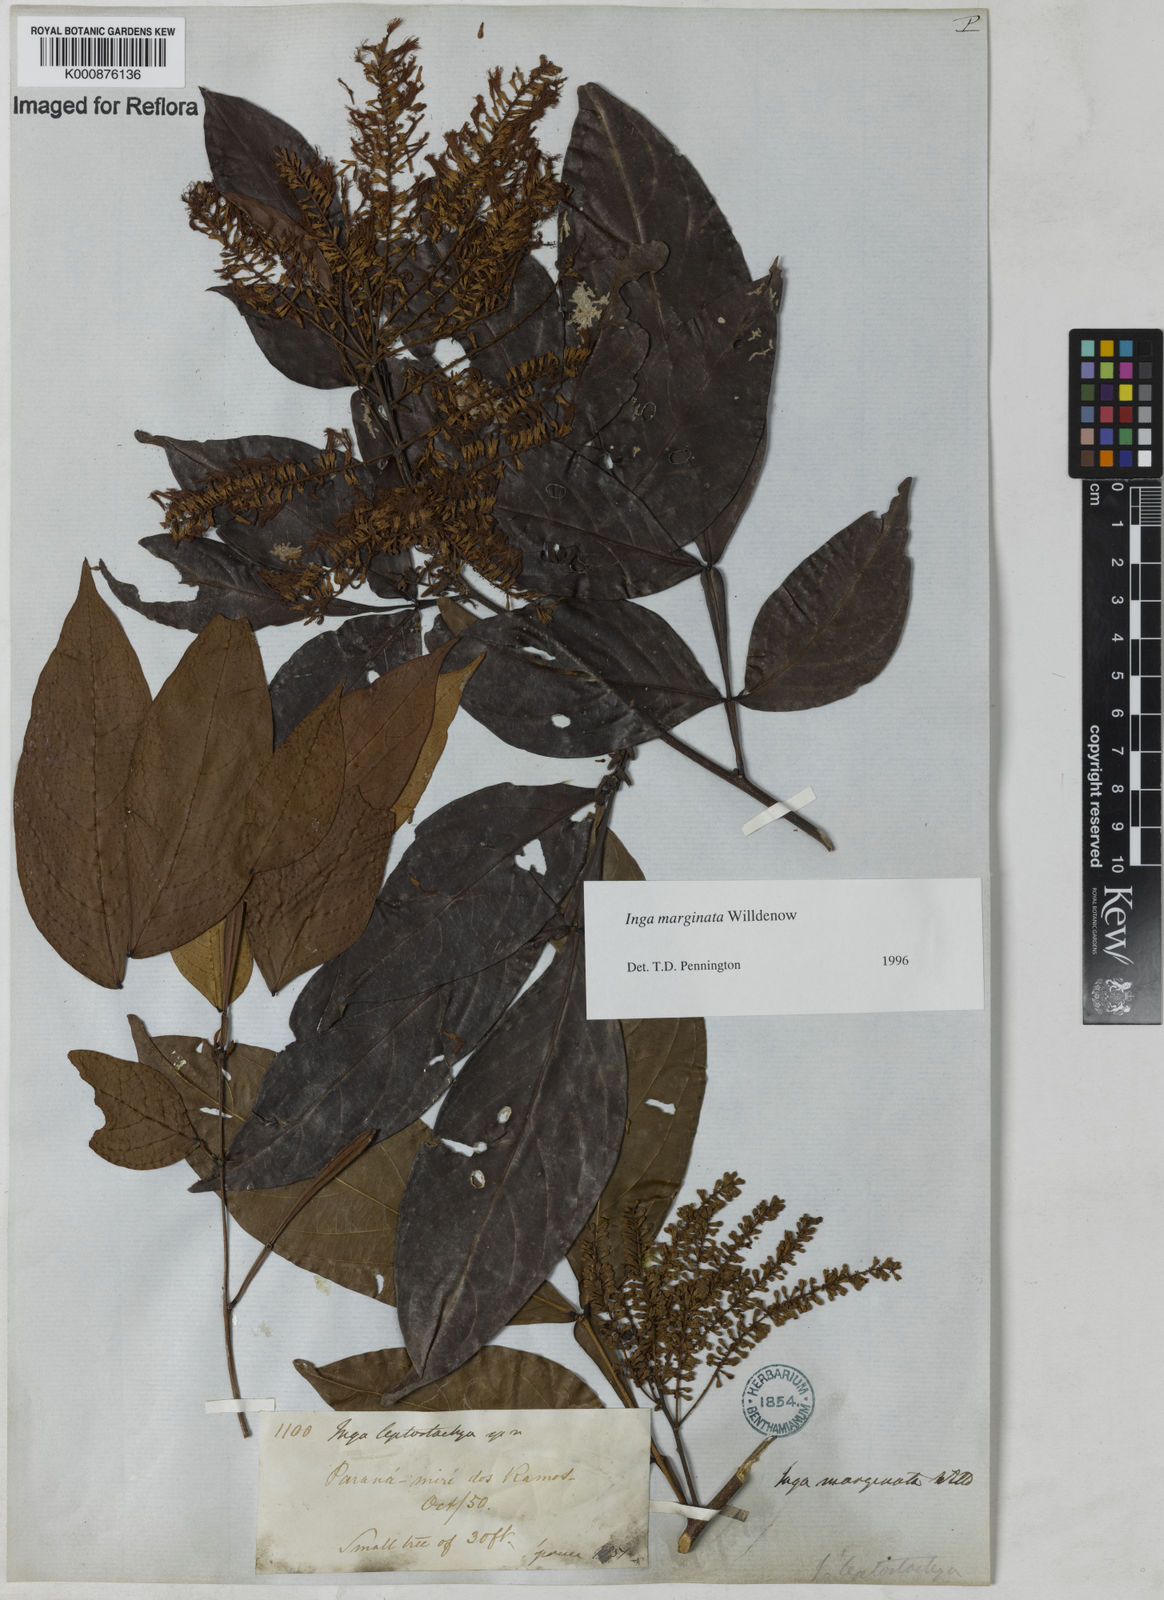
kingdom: Plantae
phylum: Tracheophyta
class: Magnoliopsida
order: Fabales
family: Fabaceae
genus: Inga
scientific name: Inga marginata
